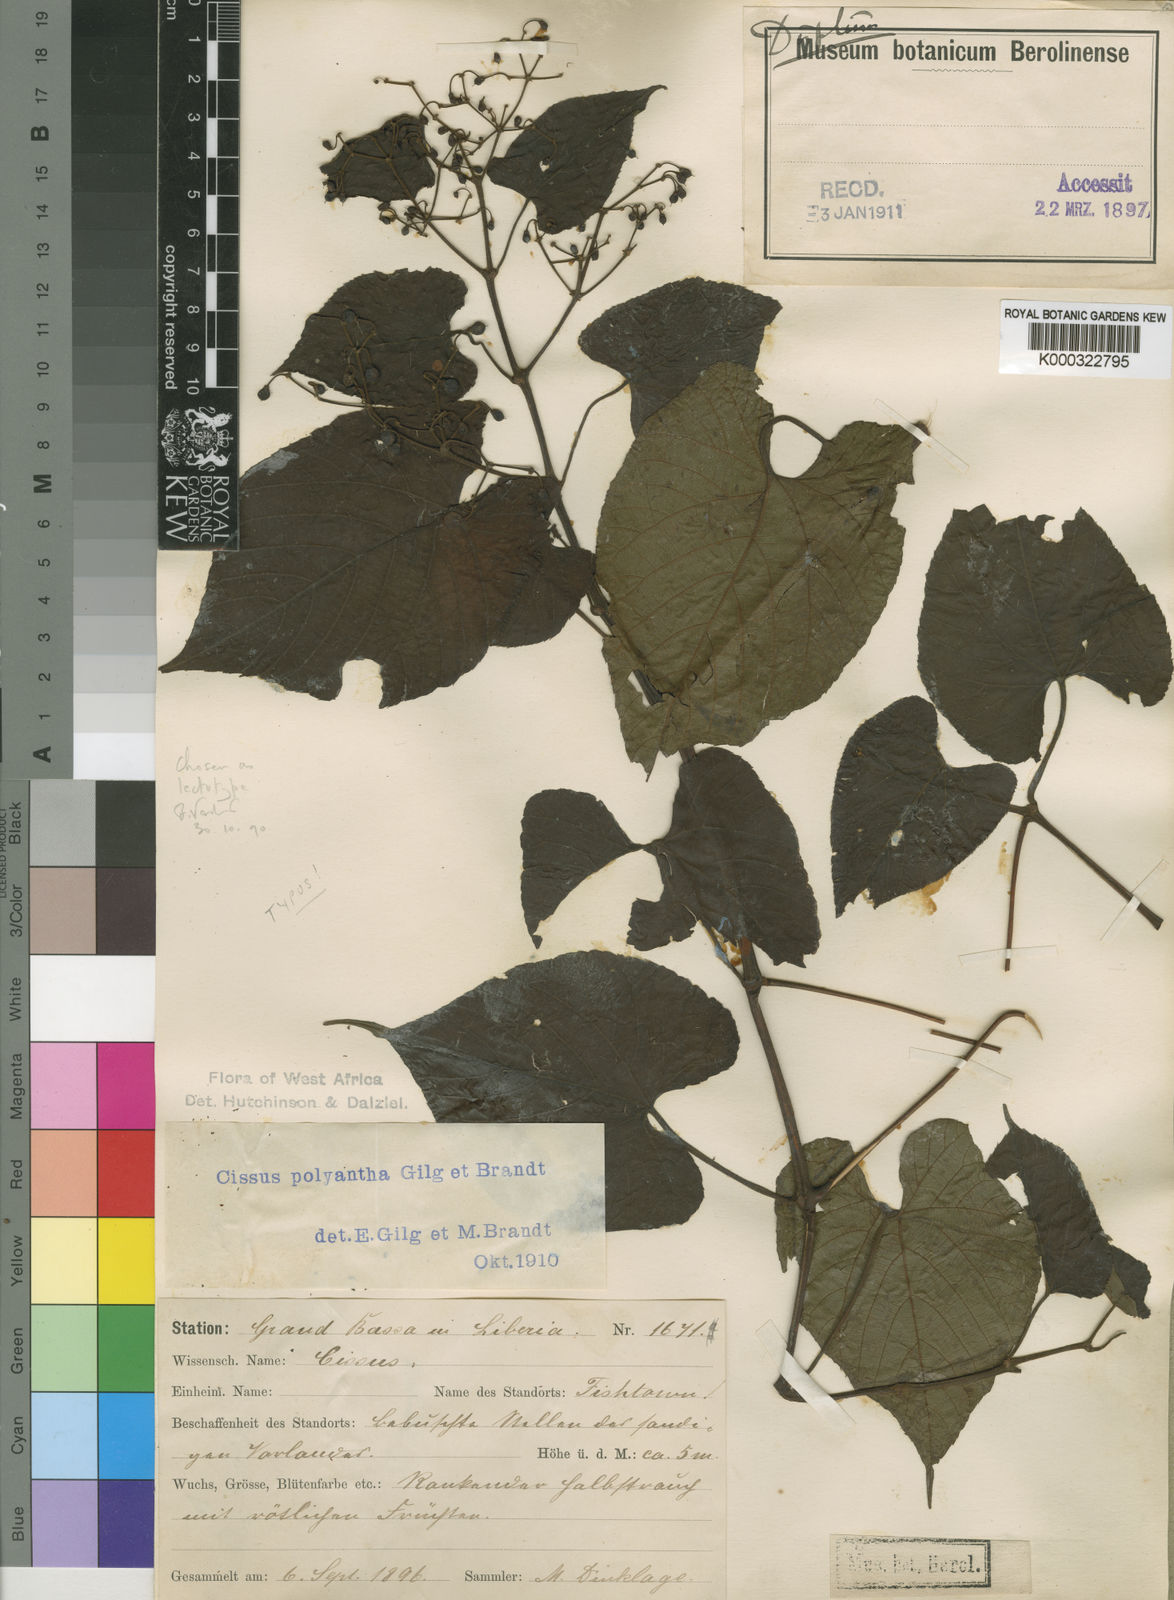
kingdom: Plantae
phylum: Tracheophyta
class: Magnoliopsida
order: Vitales
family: Vitaceae
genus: Cissus
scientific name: Cissus polyantha
